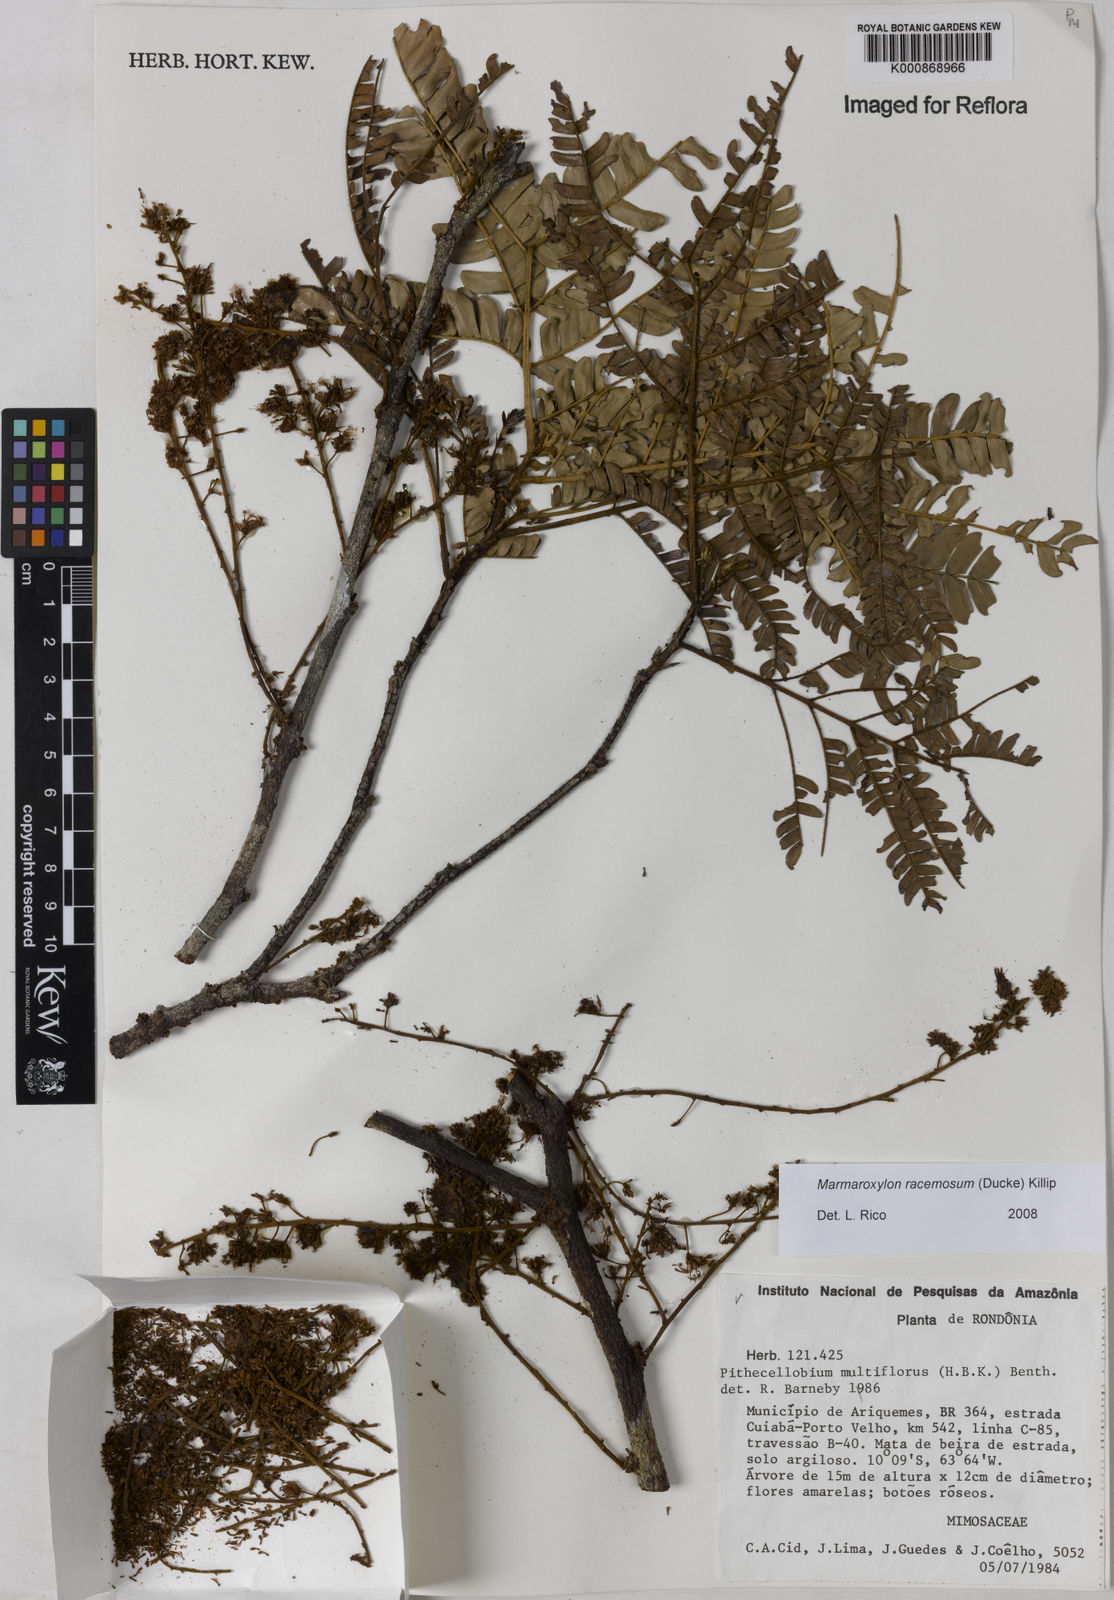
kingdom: Plantae
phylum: Tracheophyta
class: Magnoliopsida
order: Fabales
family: Fabaceae
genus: Zygia
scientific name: Zygia racemosa
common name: Marblewood
